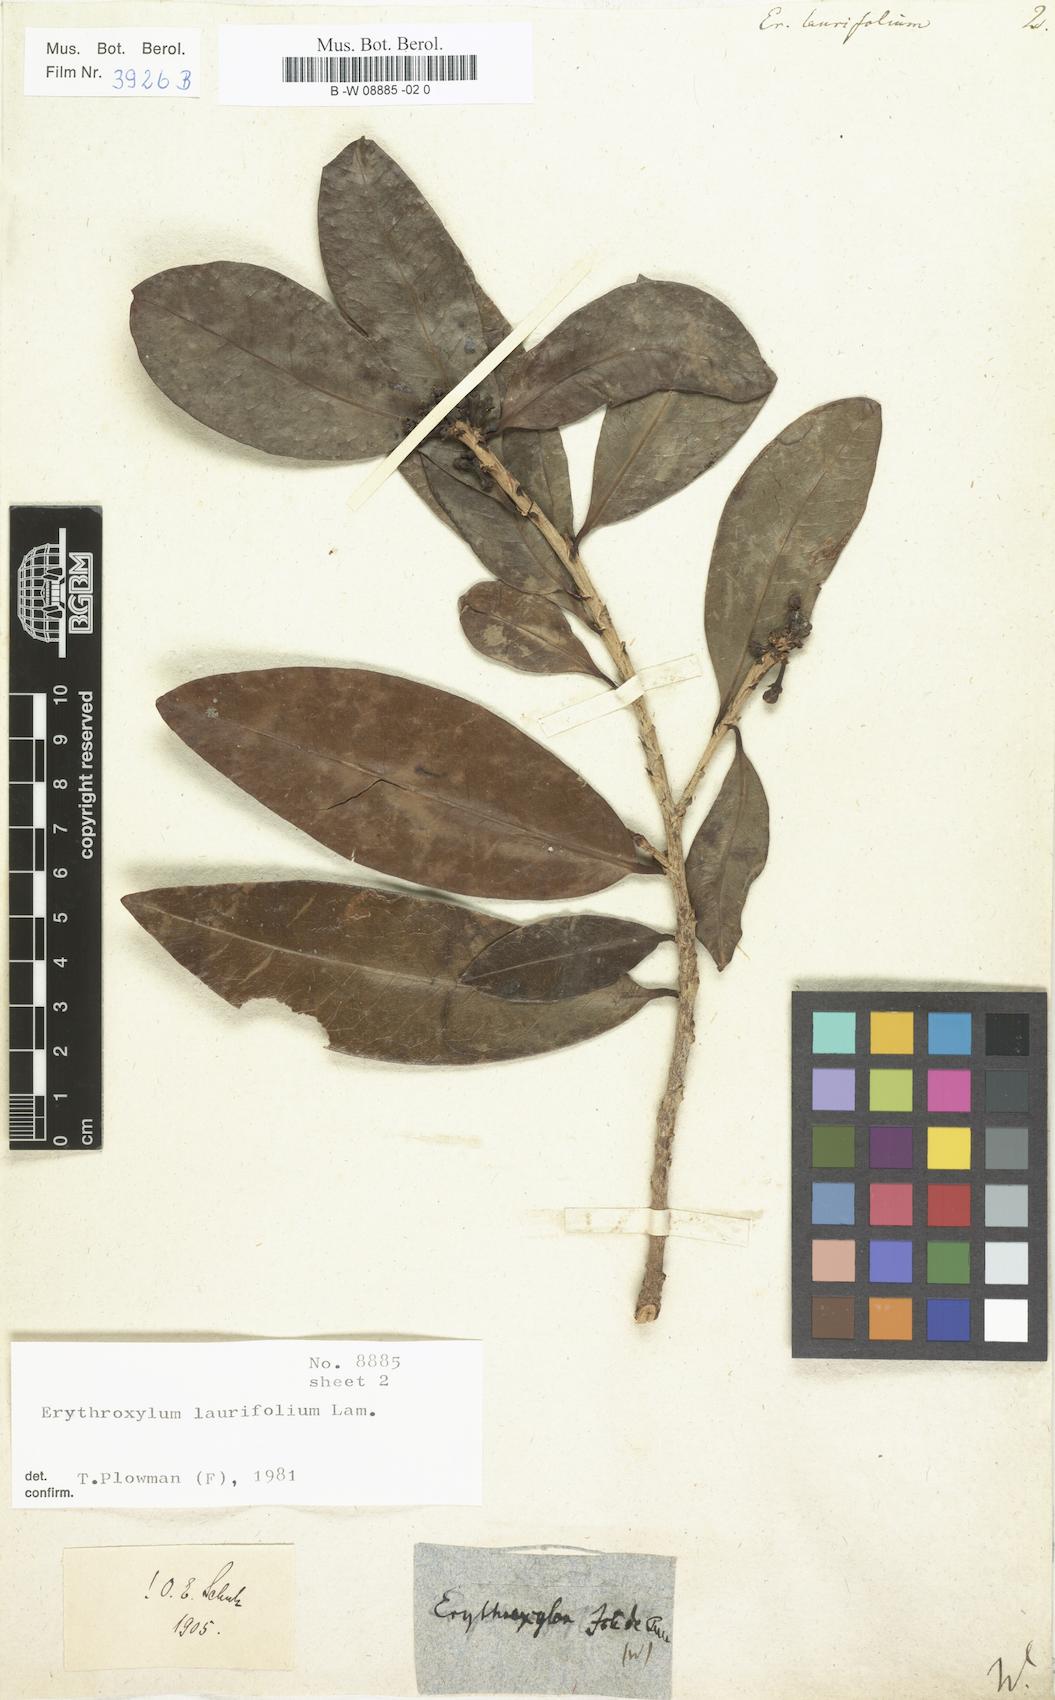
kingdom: Plantae
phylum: Tracheophyta
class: Magnoliopsida
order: Malpighiales
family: Erythroxylaceae
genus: Erythroxylum
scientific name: Erythroxylum laurifolium
